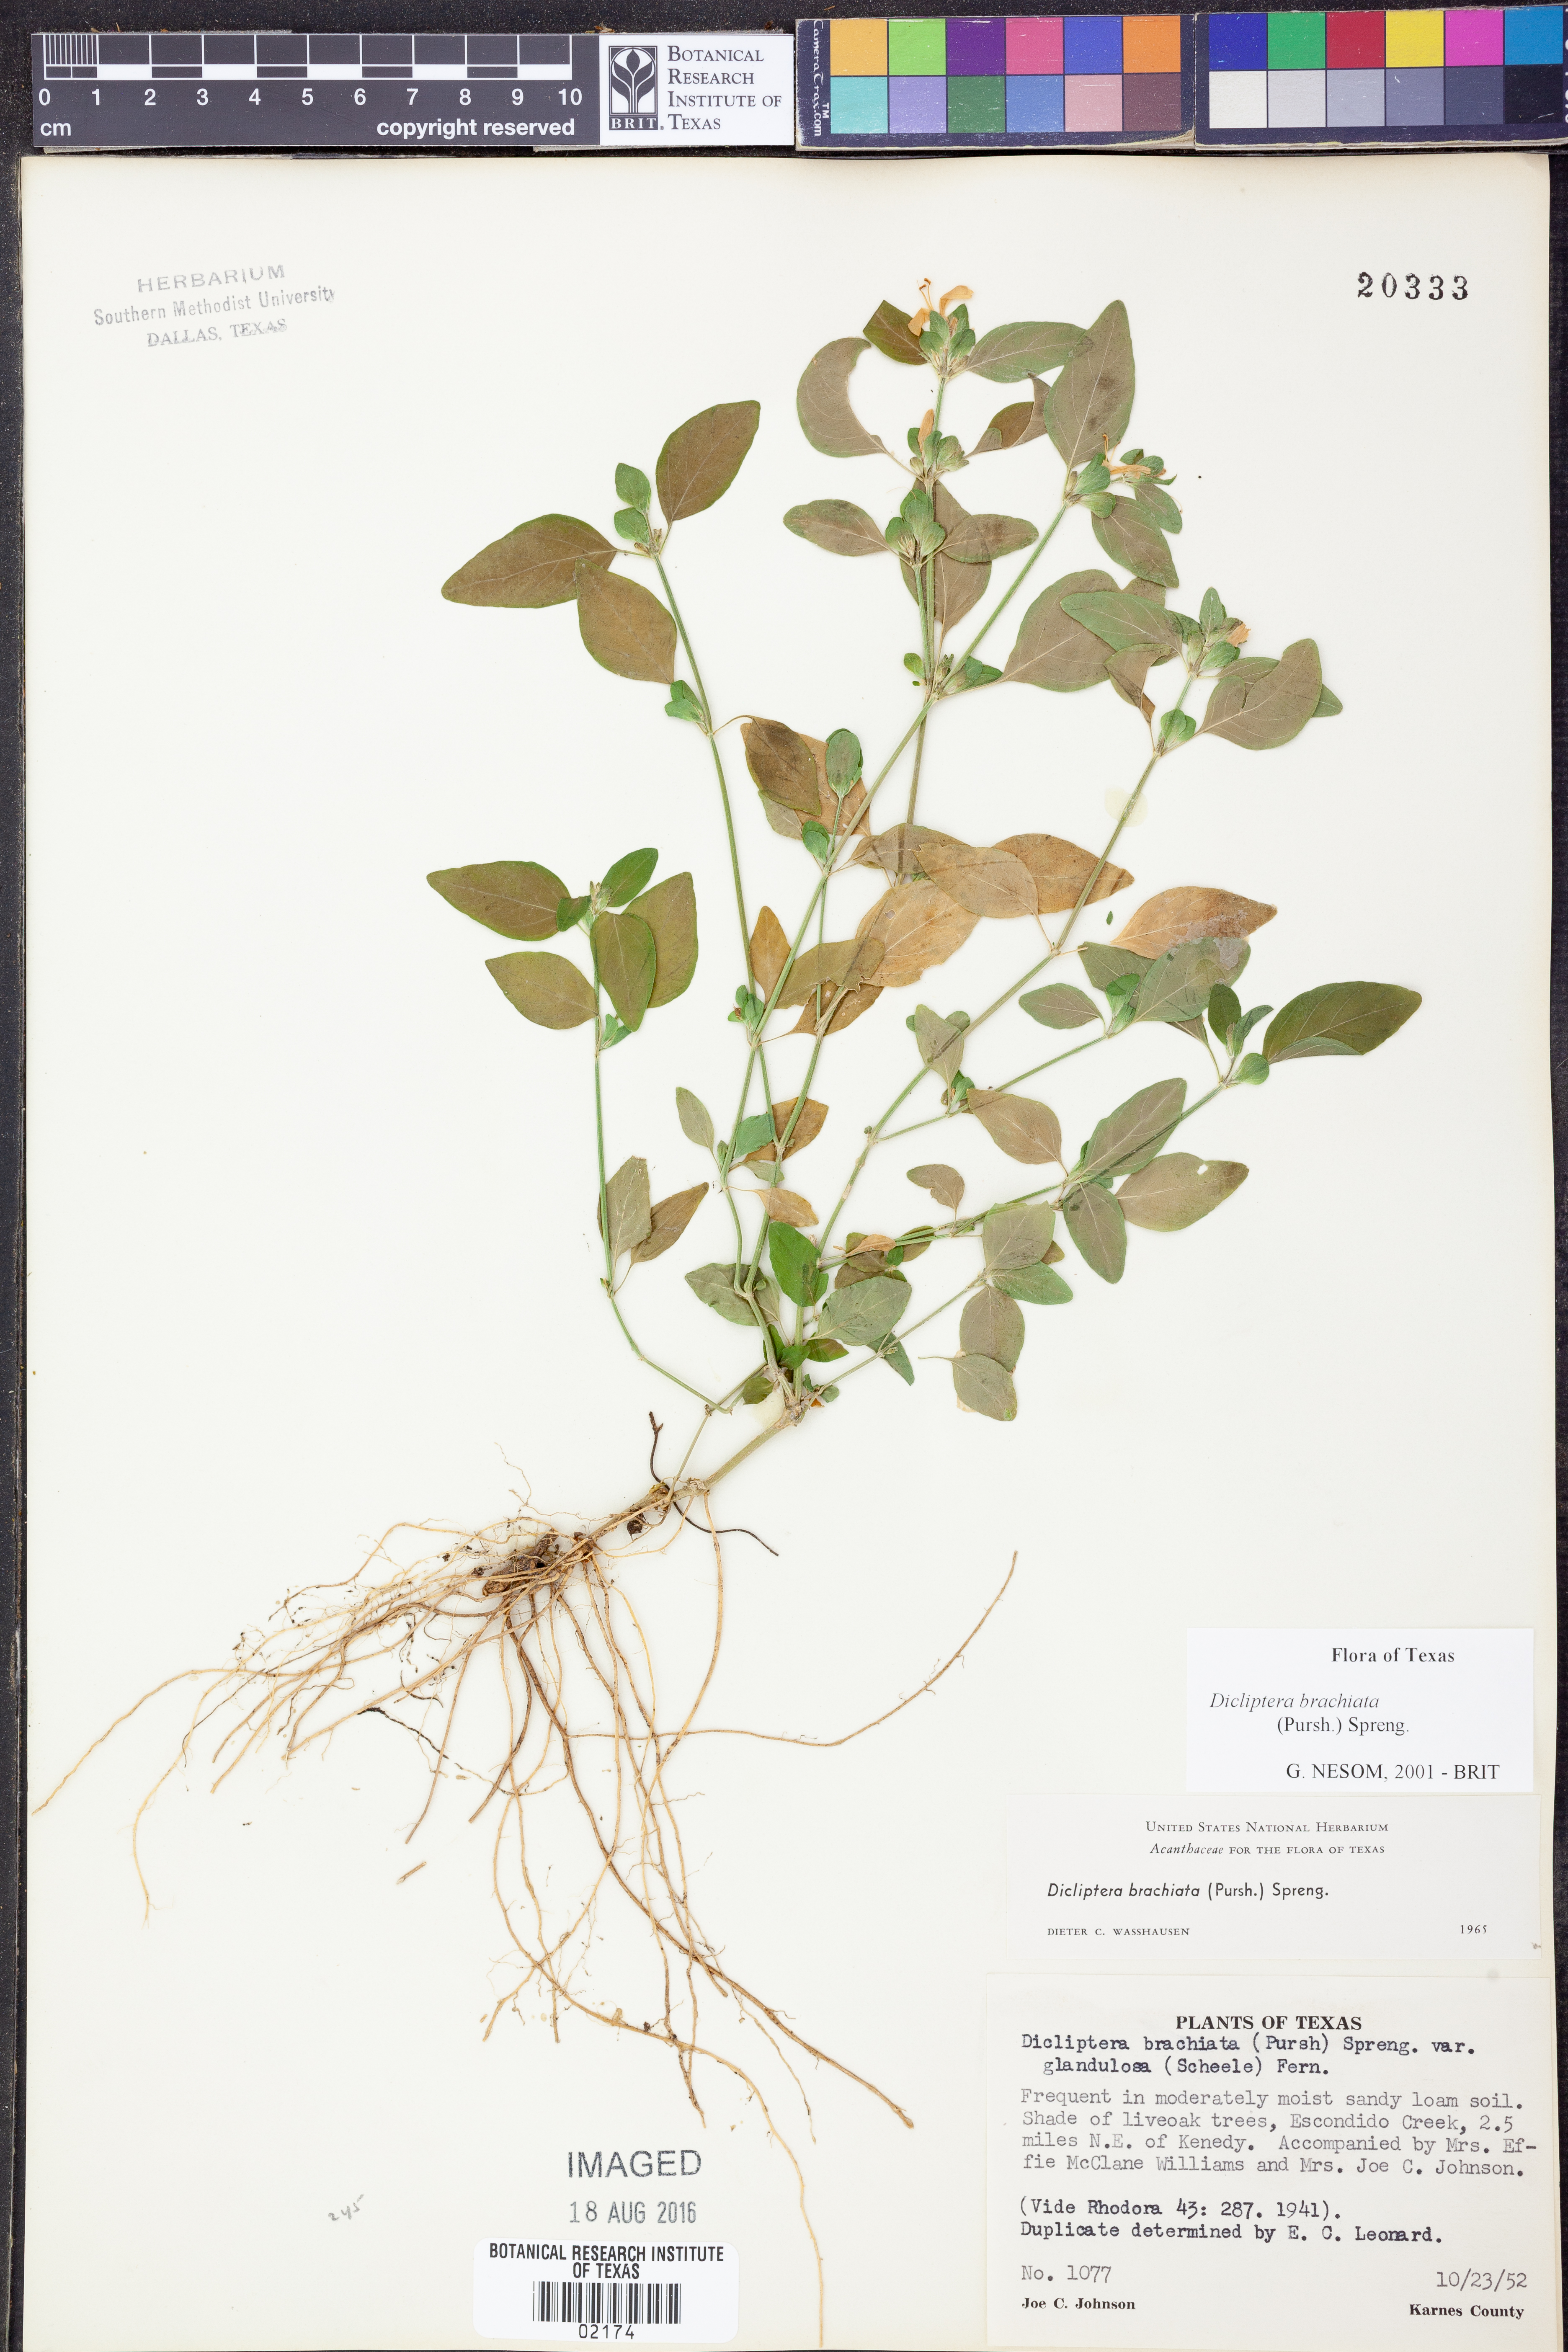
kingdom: Plantae
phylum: Tracheophyta
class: Magnoliopsida
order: Lamiales
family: Acanthaceae
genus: Dicliptera
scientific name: Dicliptera brachiata
